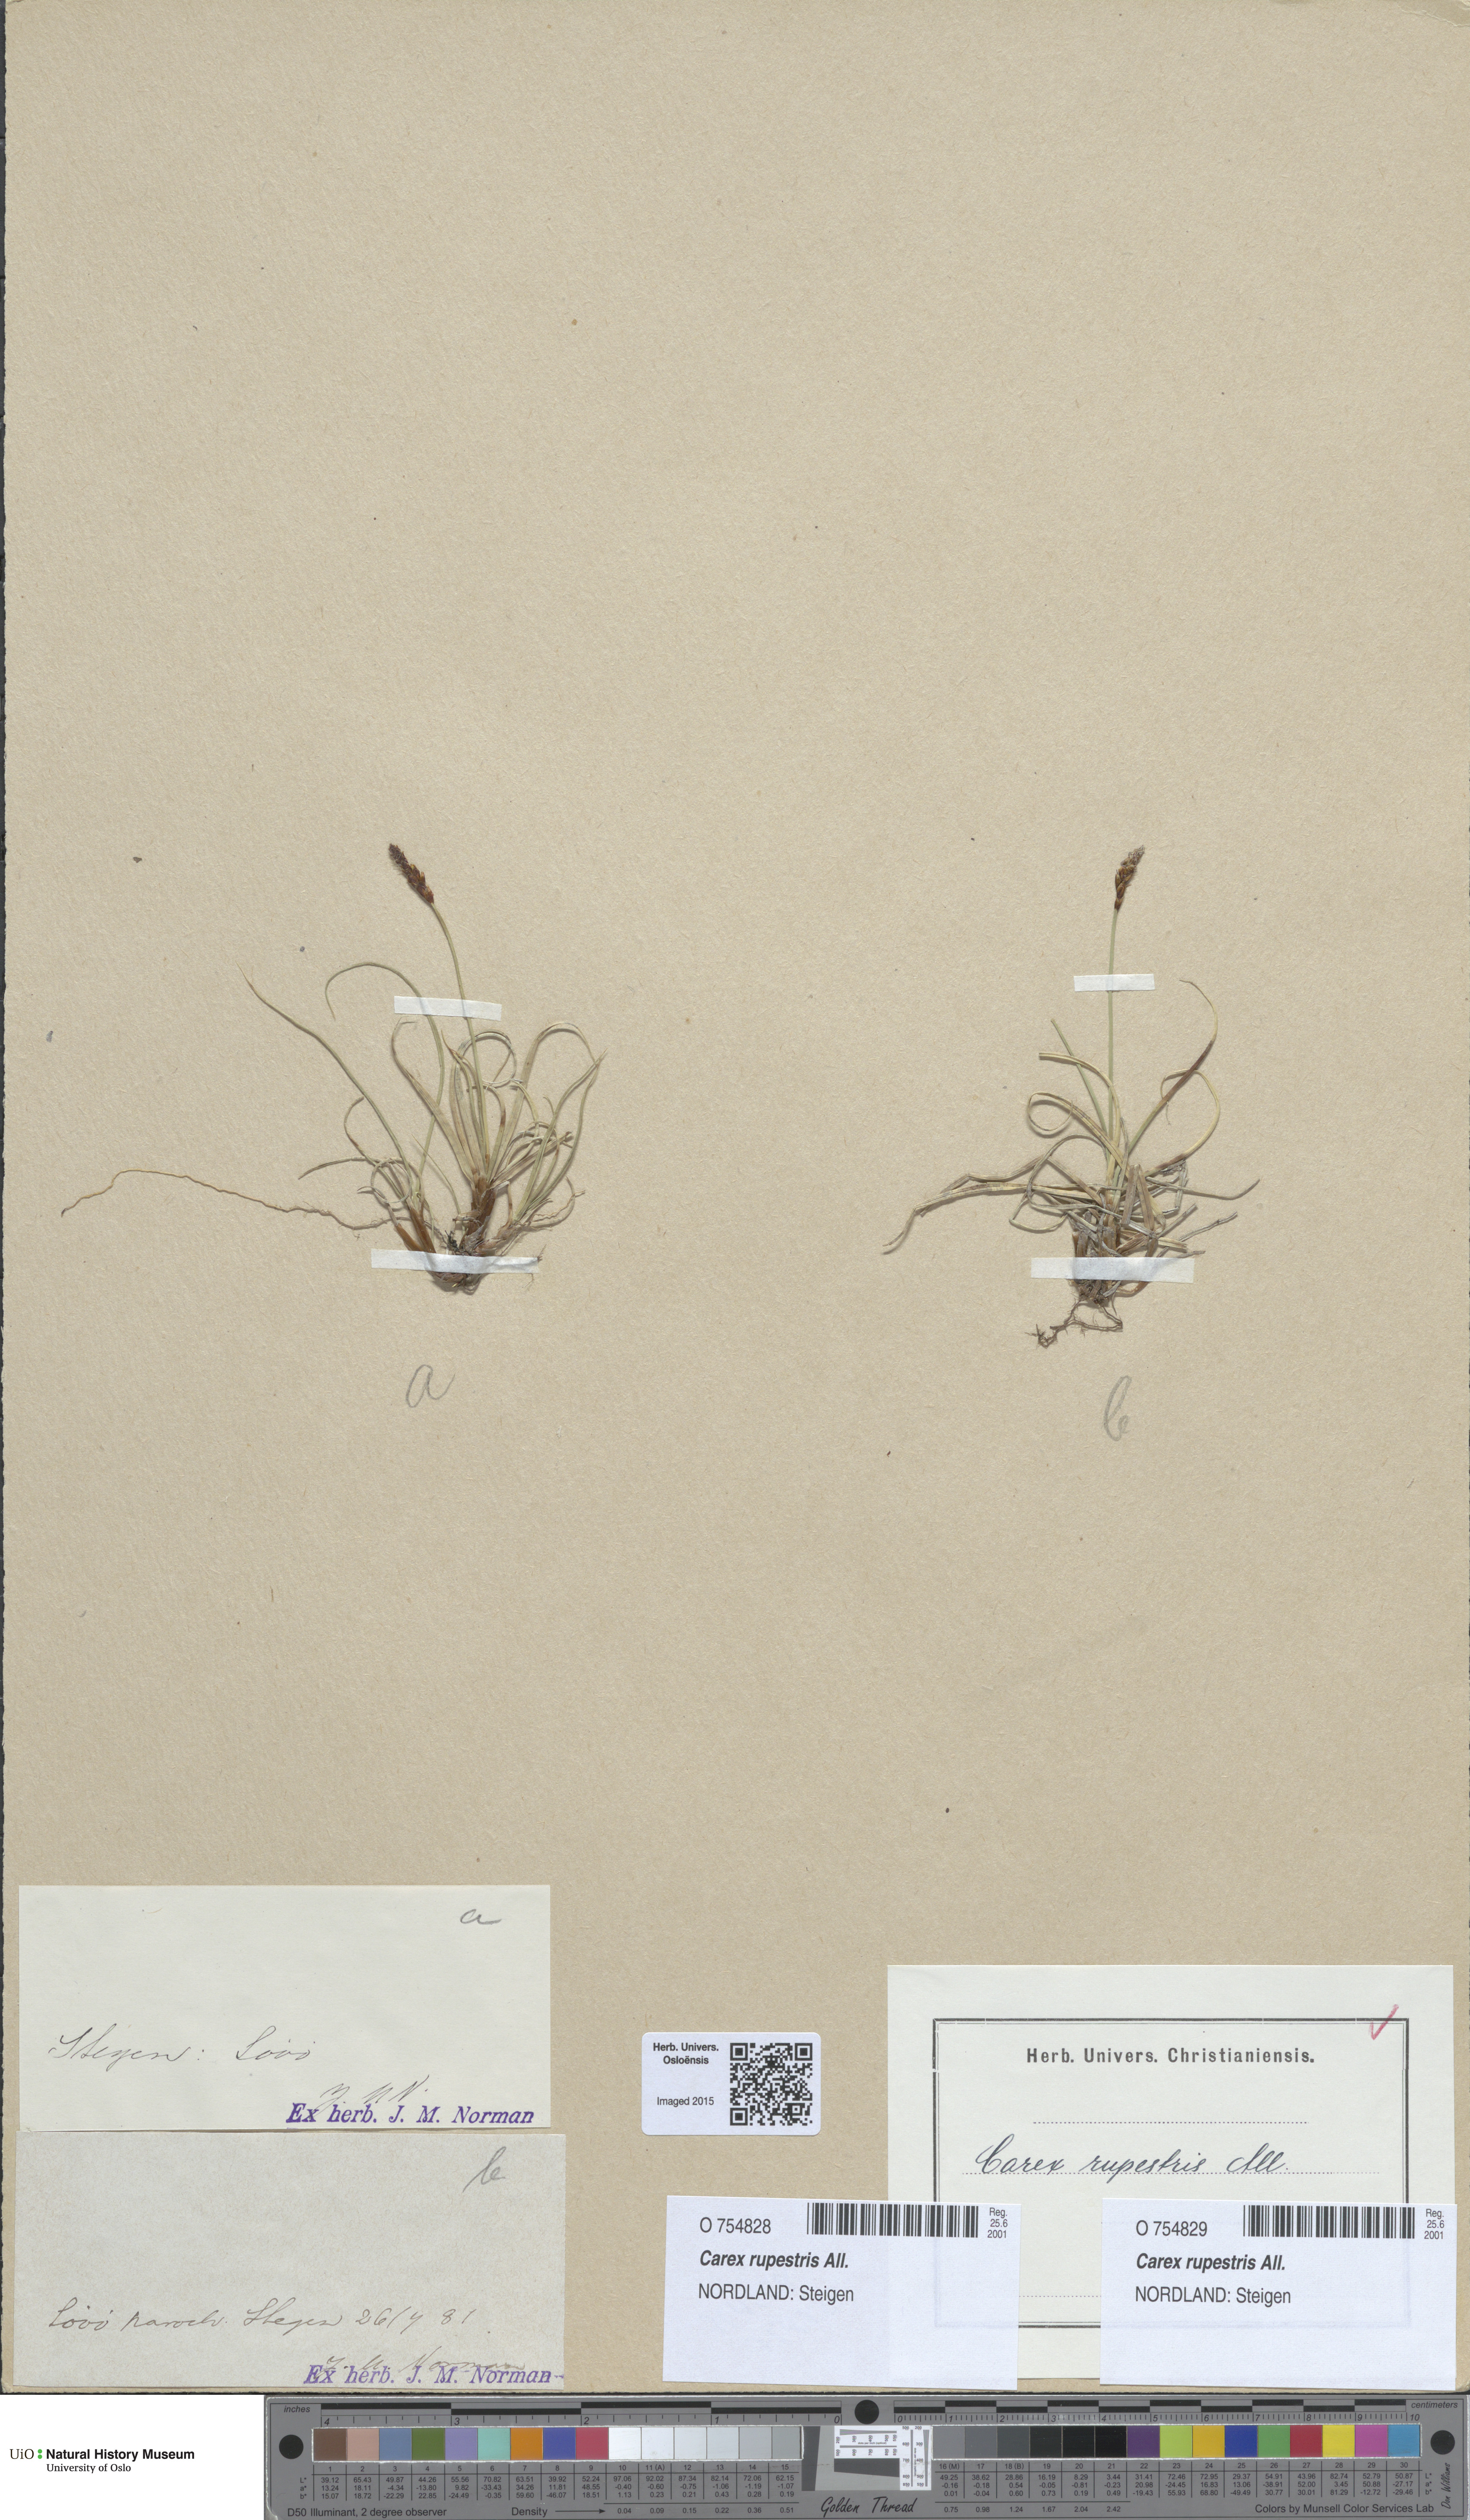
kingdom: Plantae
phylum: Tracheophyta
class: Liliopsida
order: Poales
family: Cyperaceae
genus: Carex
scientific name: Carex rupestris
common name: Rock sedge
